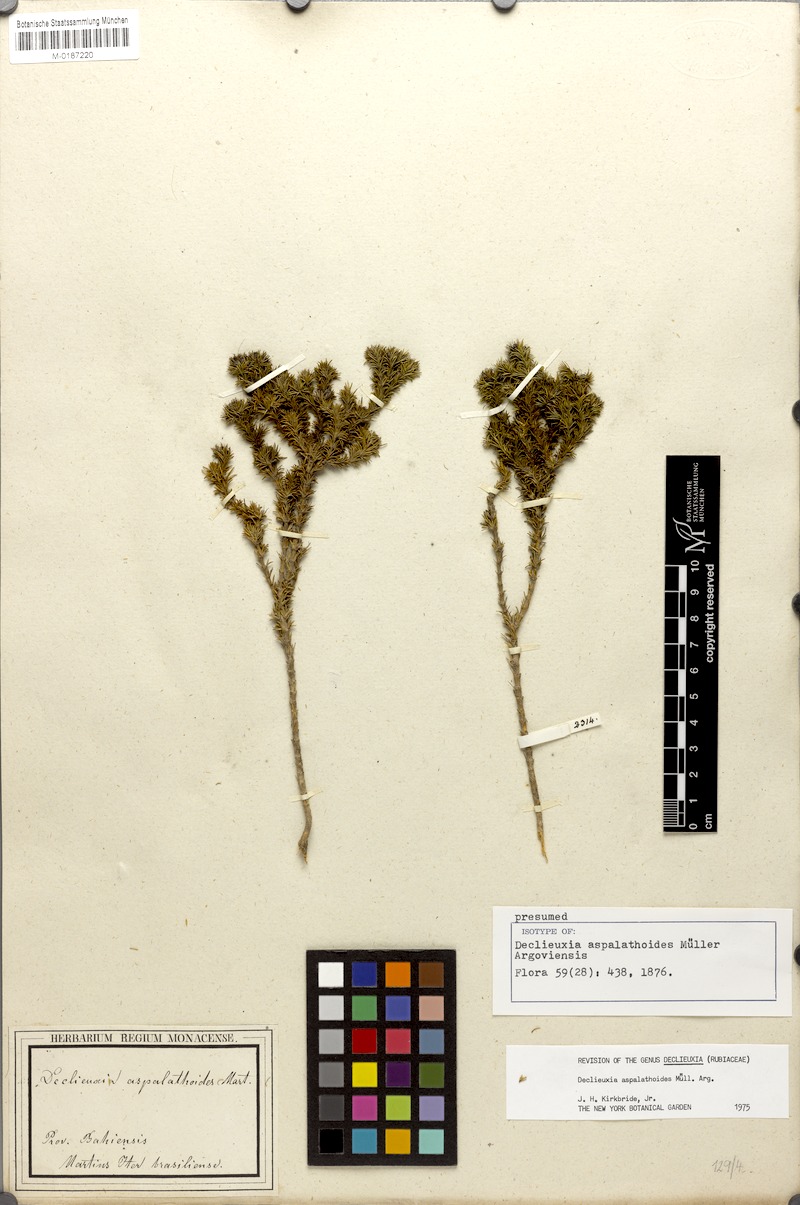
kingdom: Plantae
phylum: Tracheophyta
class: Magnoliopsida
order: Gentianales
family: Rubiaceae
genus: Declieuxia
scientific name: Declieuxia aspalathoides
